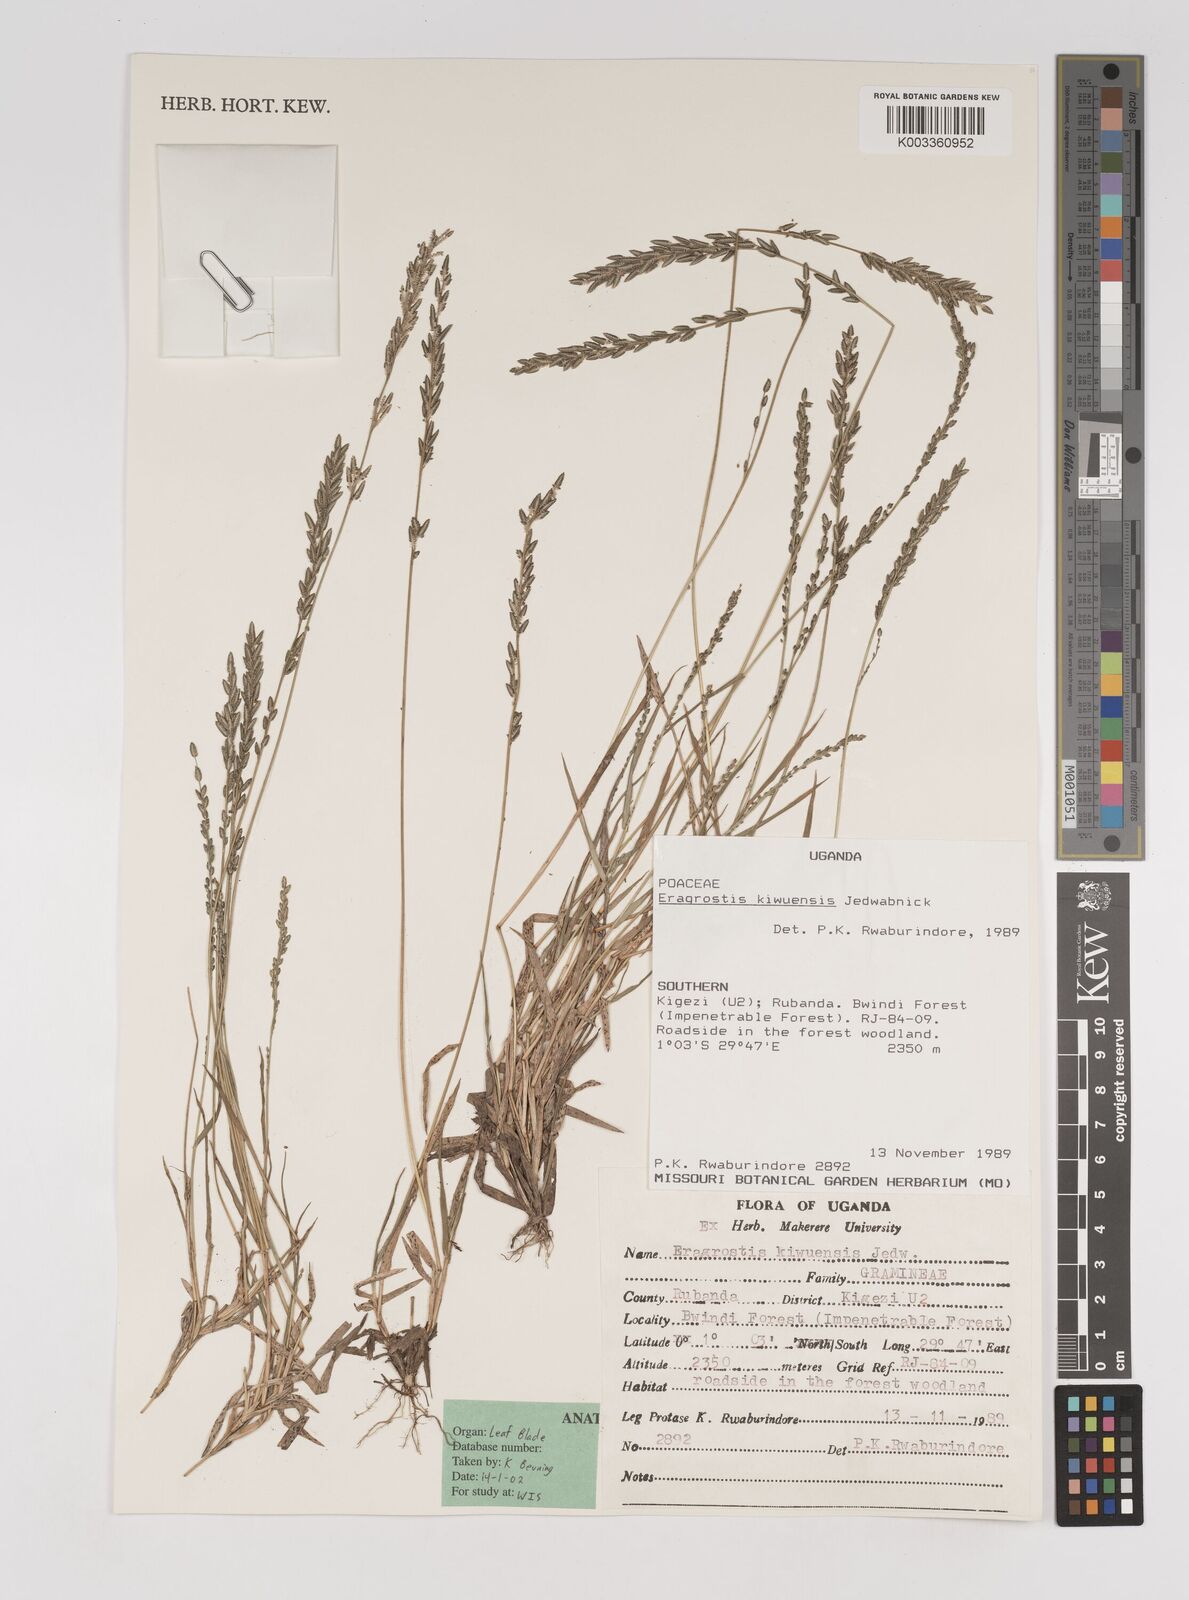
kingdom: Plantae
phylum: Tracheophyta
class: Liliopsida
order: Poales
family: Poaceae
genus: Eragrostis
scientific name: Eragrostis schweinfurthii
